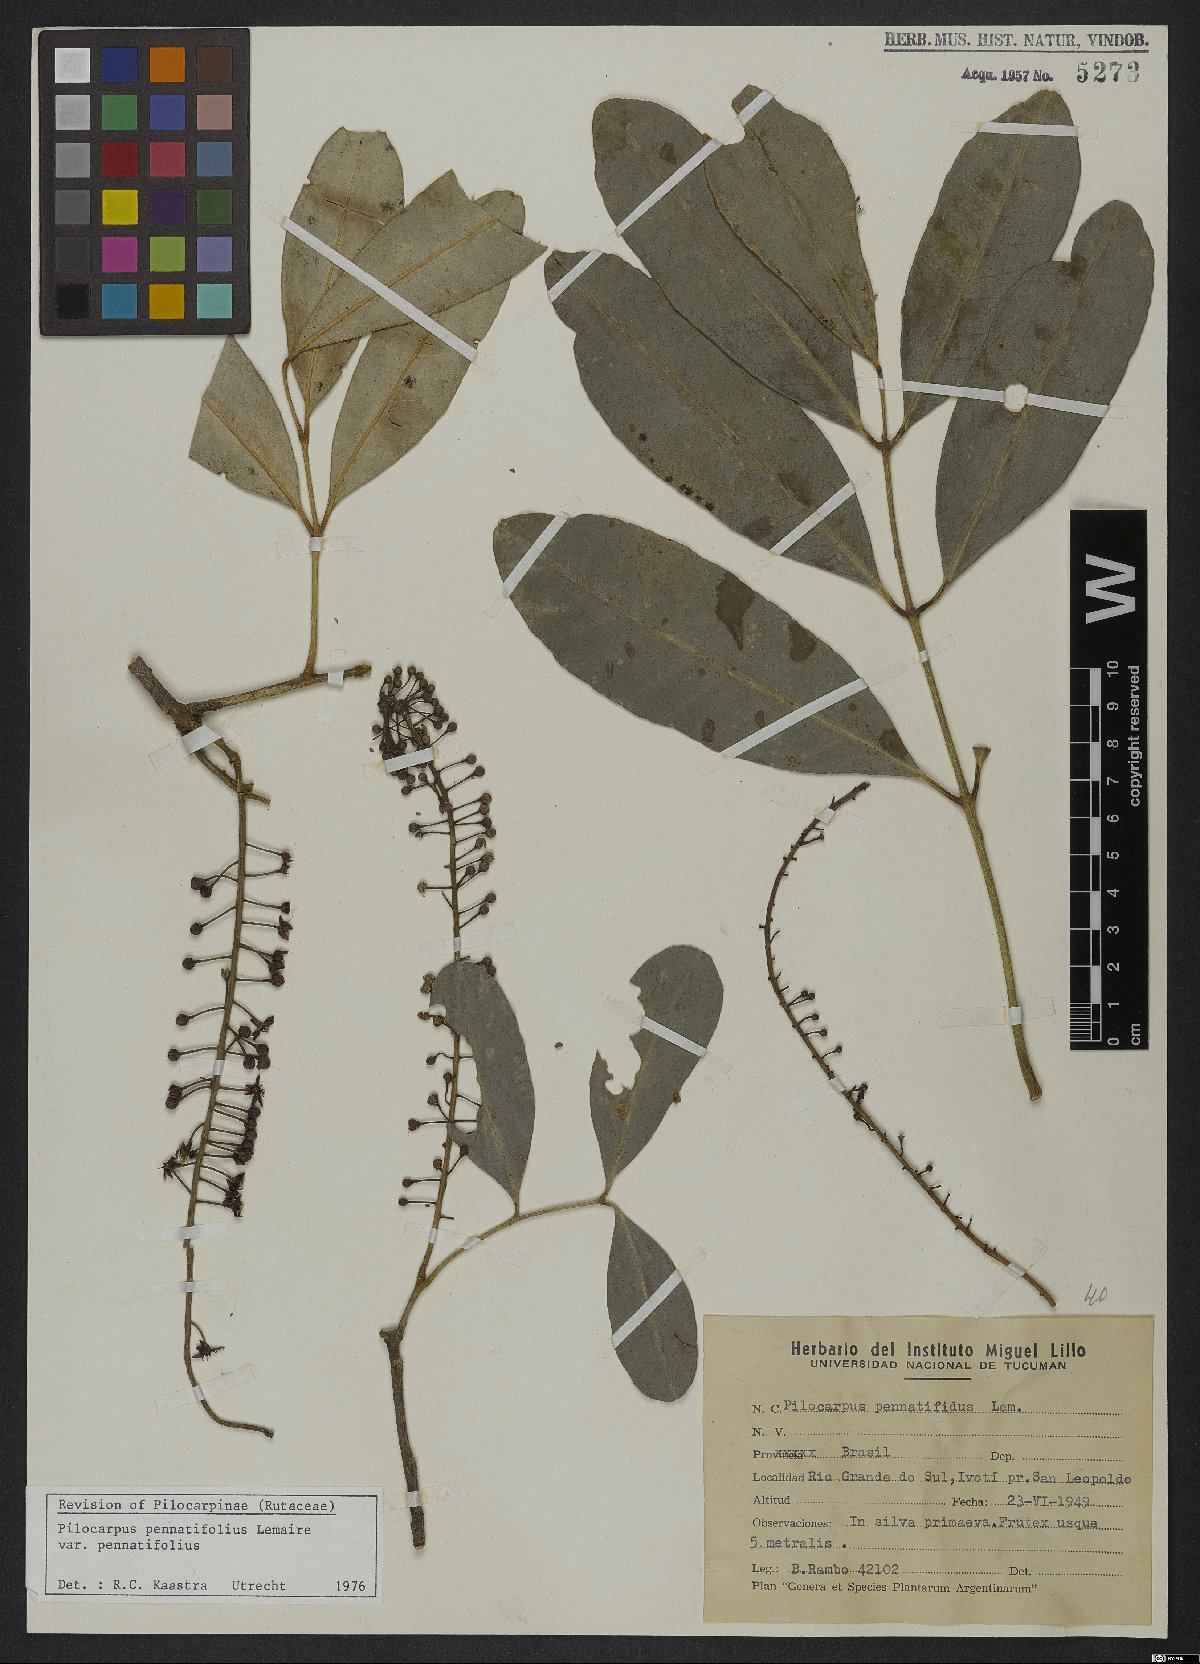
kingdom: Plantae
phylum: Tracheophyta
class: Magnoliopsida
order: Sapindales
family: Rutaceae
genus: Pilocarpus
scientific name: Pilocarpus pennatifolius
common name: Paraguay jaborandi
